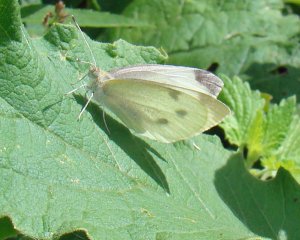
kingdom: Animalia
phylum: Arthropoda
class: Insecta
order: Lepidoptera
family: Pieridae
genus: Pieris
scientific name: Pieris rapae
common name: Cabbage White
